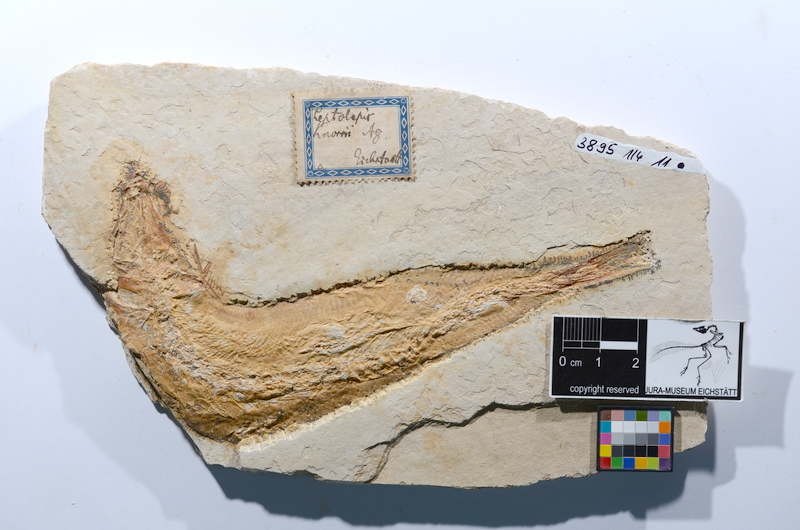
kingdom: Animalia
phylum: Chordata
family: Ascalaboidae
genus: Tharsis
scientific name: Tharsis dubius
